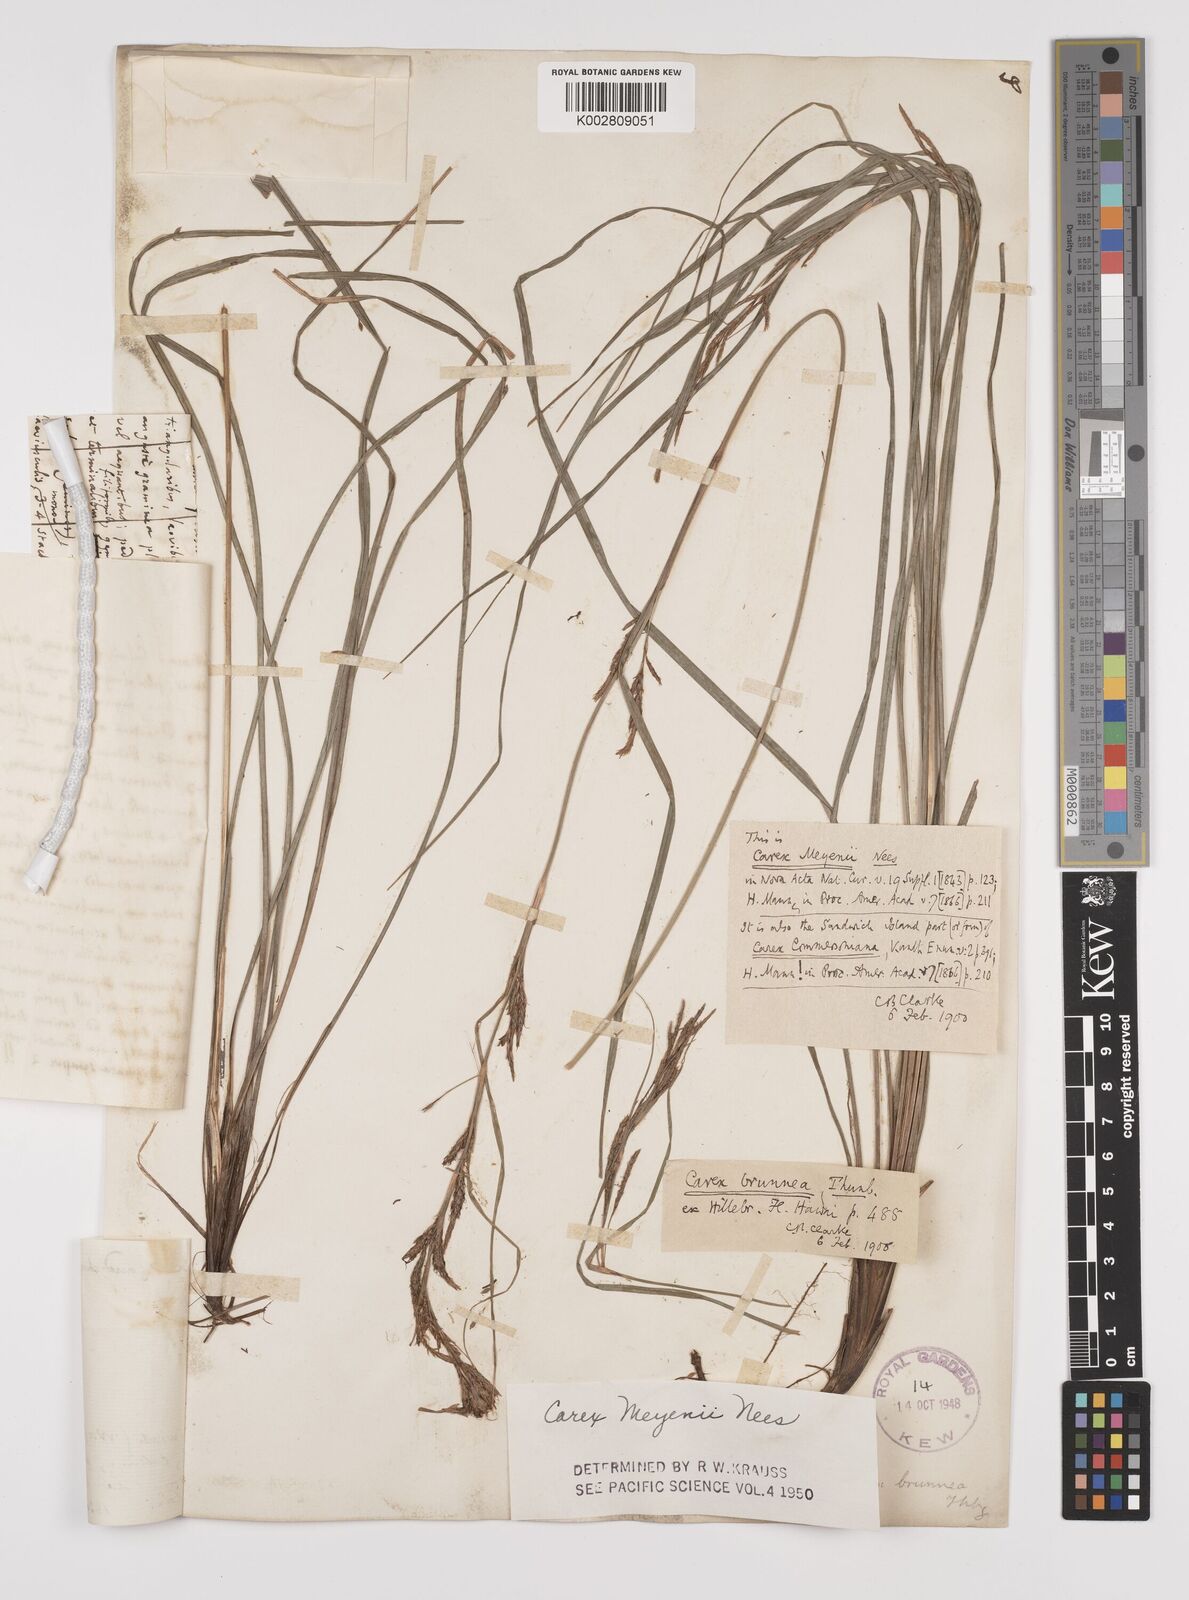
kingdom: Plantae
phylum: Tracheophyta
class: Liliopsida
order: Poales
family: Cyperaceae
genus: Carex
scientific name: Carex brunnea
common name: Greater brown sedge
